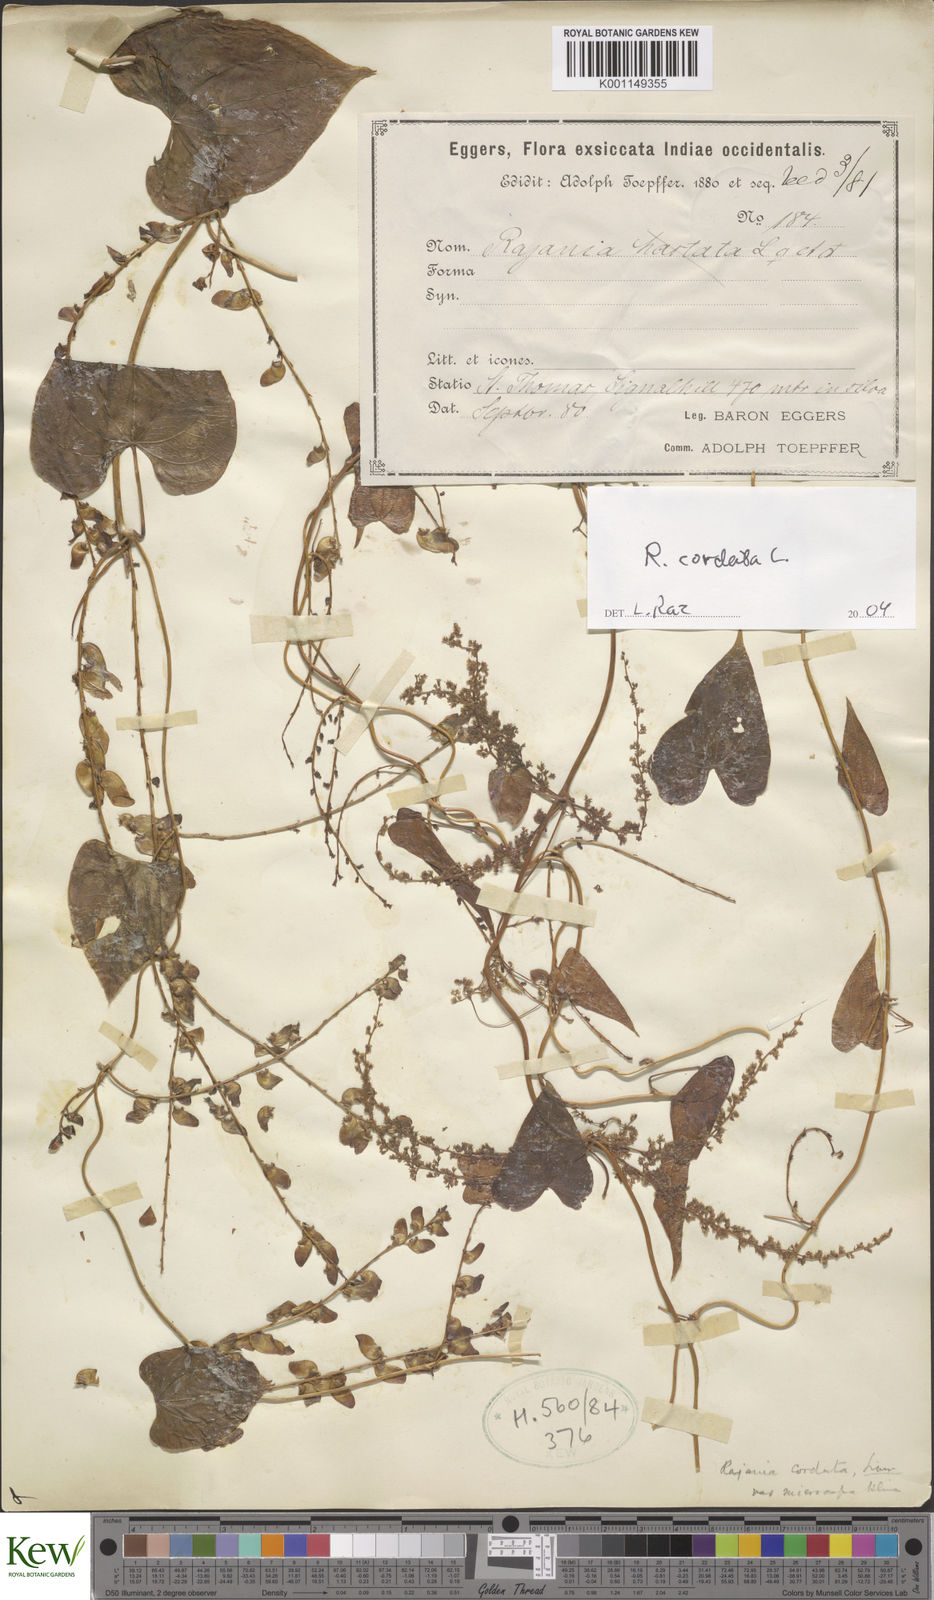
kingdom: Plantae
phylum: Tracheophyta
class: Liliopsida
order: Dioscoreales
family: Dioscoreaceae
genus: Dioscorea
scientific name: Dioscorea
